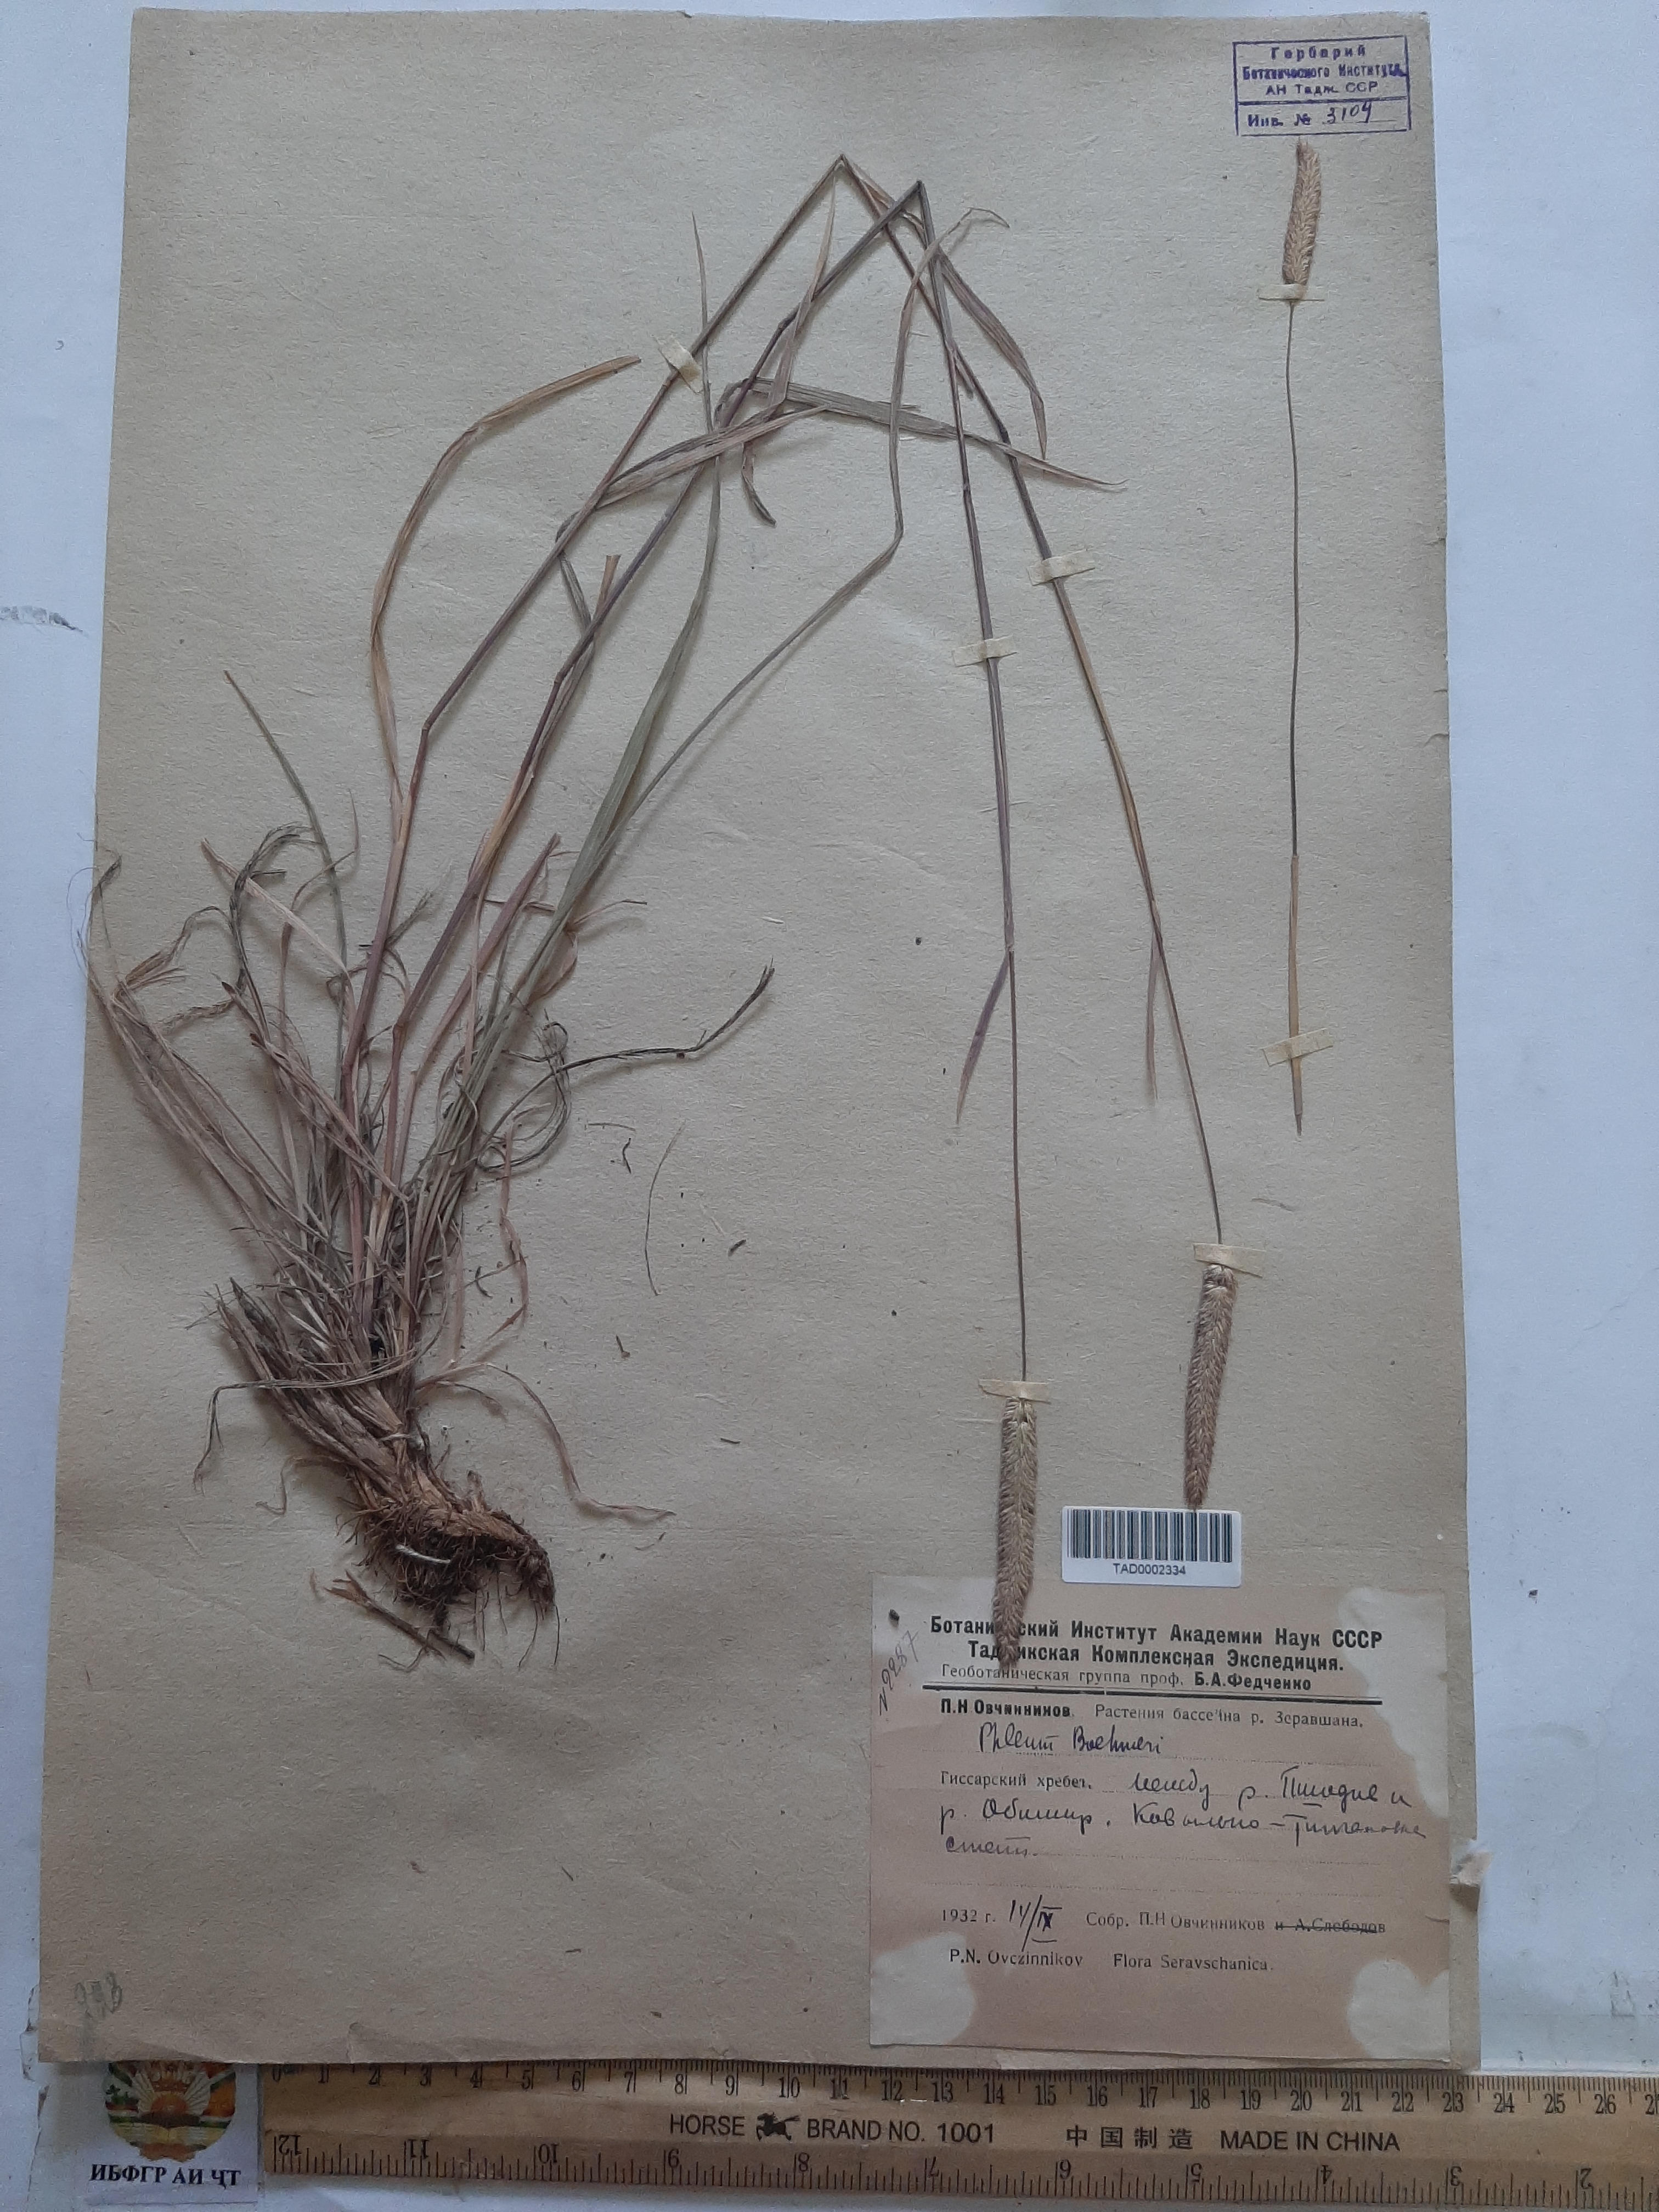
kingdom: Plantae
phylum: Tracheophyta
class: Liliopsida
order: Poales
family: Poaceae
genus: Phleum
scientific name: Phleum phleoides
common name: Purple-stem cat's-tail
